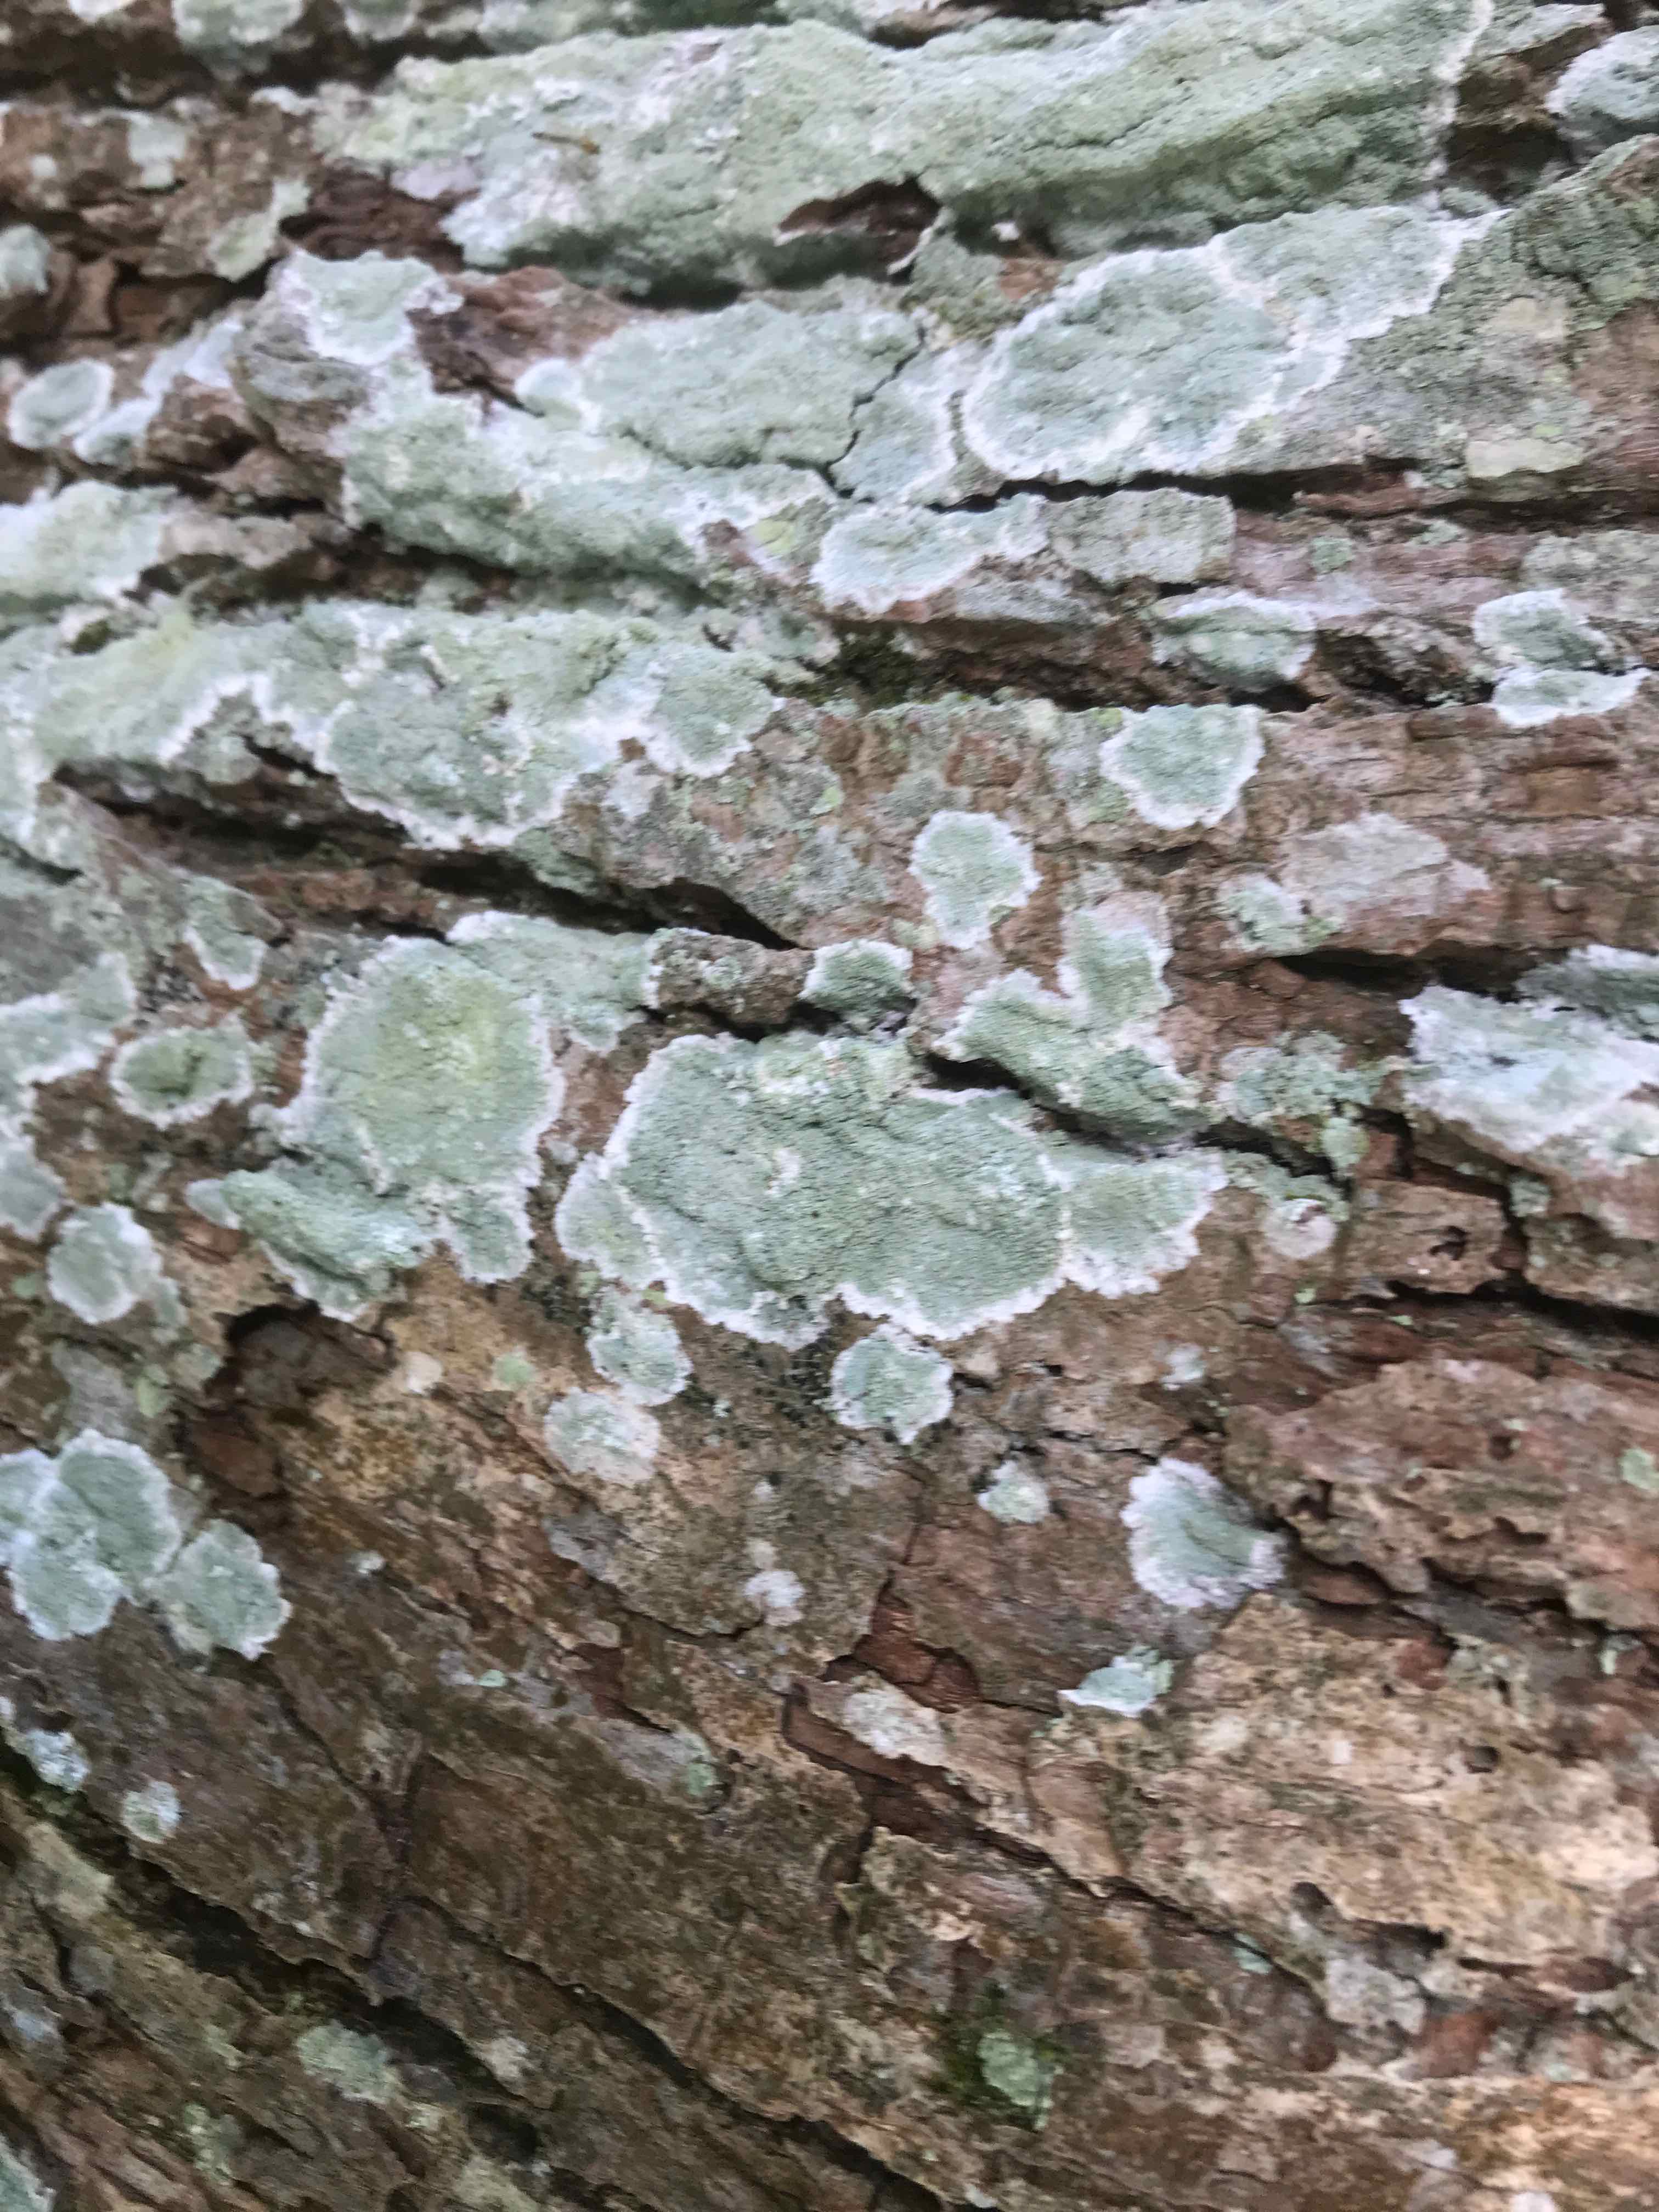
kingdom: Fungi
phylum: Ascomycota
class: Lecanoromycetes
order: Lecanorales
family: Haematommataceae
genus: Haematomma
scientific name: Haematomma ochroleucum
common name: gul trådkantlav
